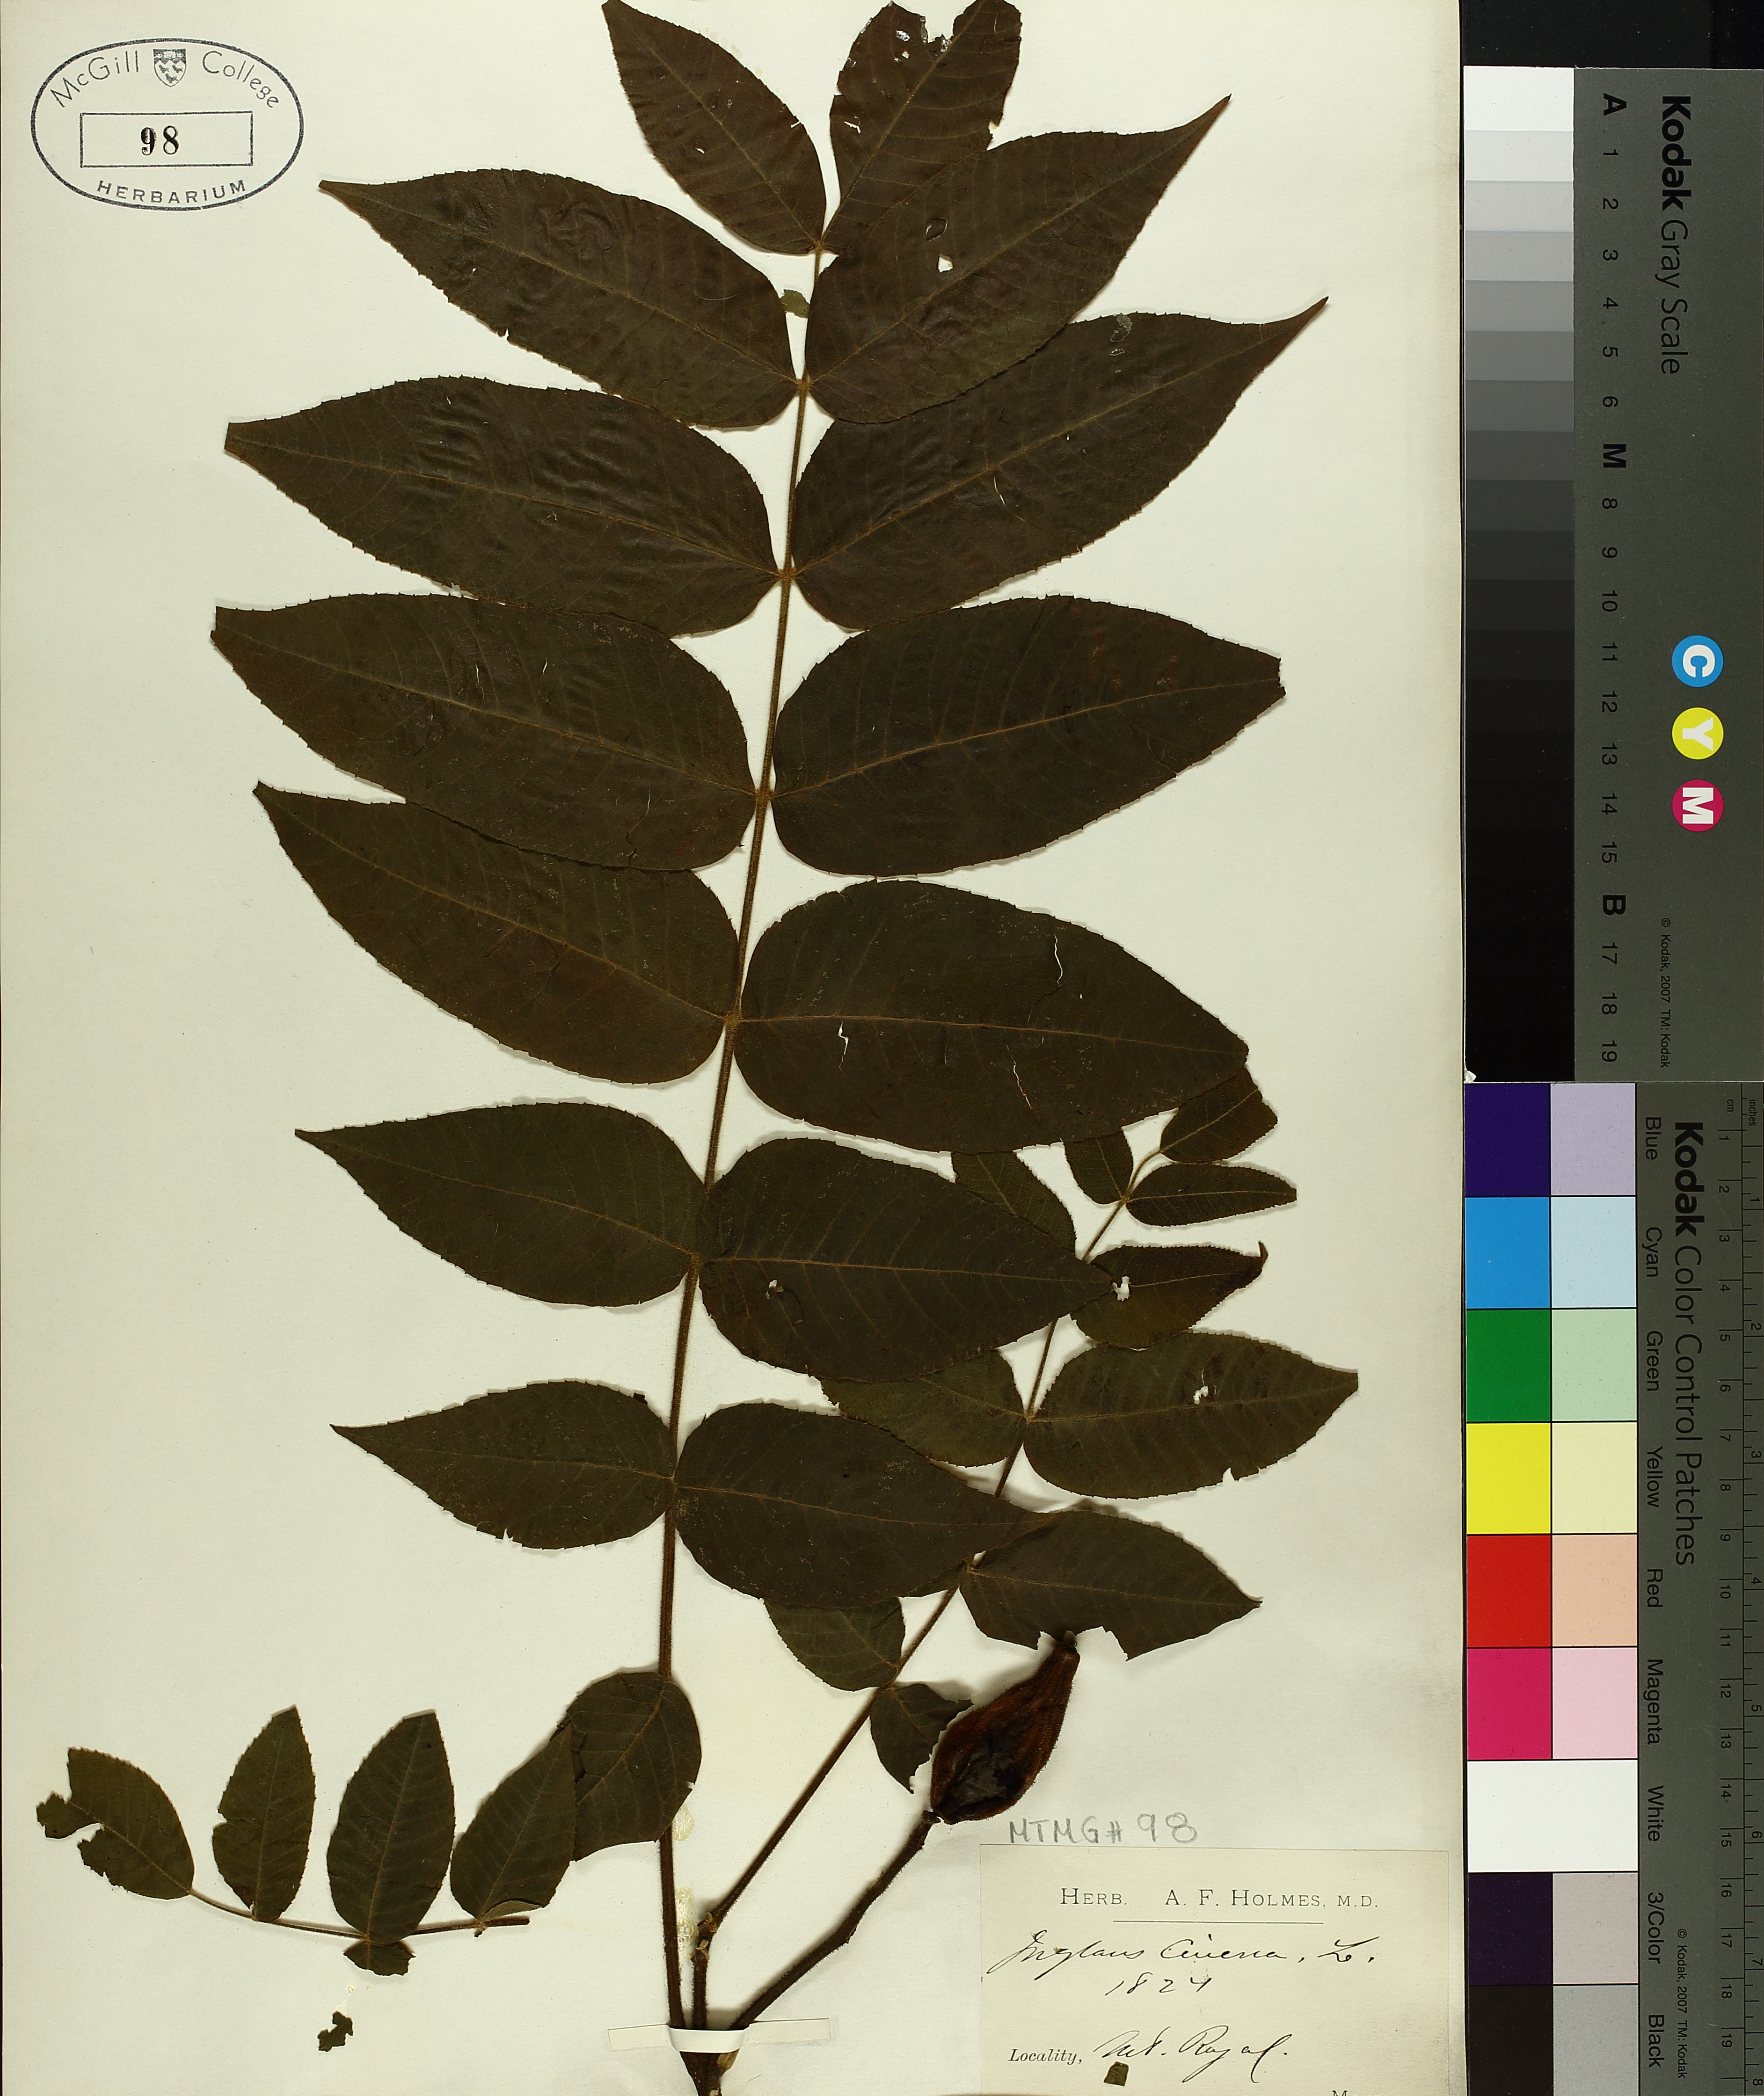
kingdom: Plantae
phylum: Tracheophyta
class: Magnoliopsida
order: Fagales
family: Juglandaceae
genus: Juglans
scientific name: Juglans cinerea
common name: Butternut
